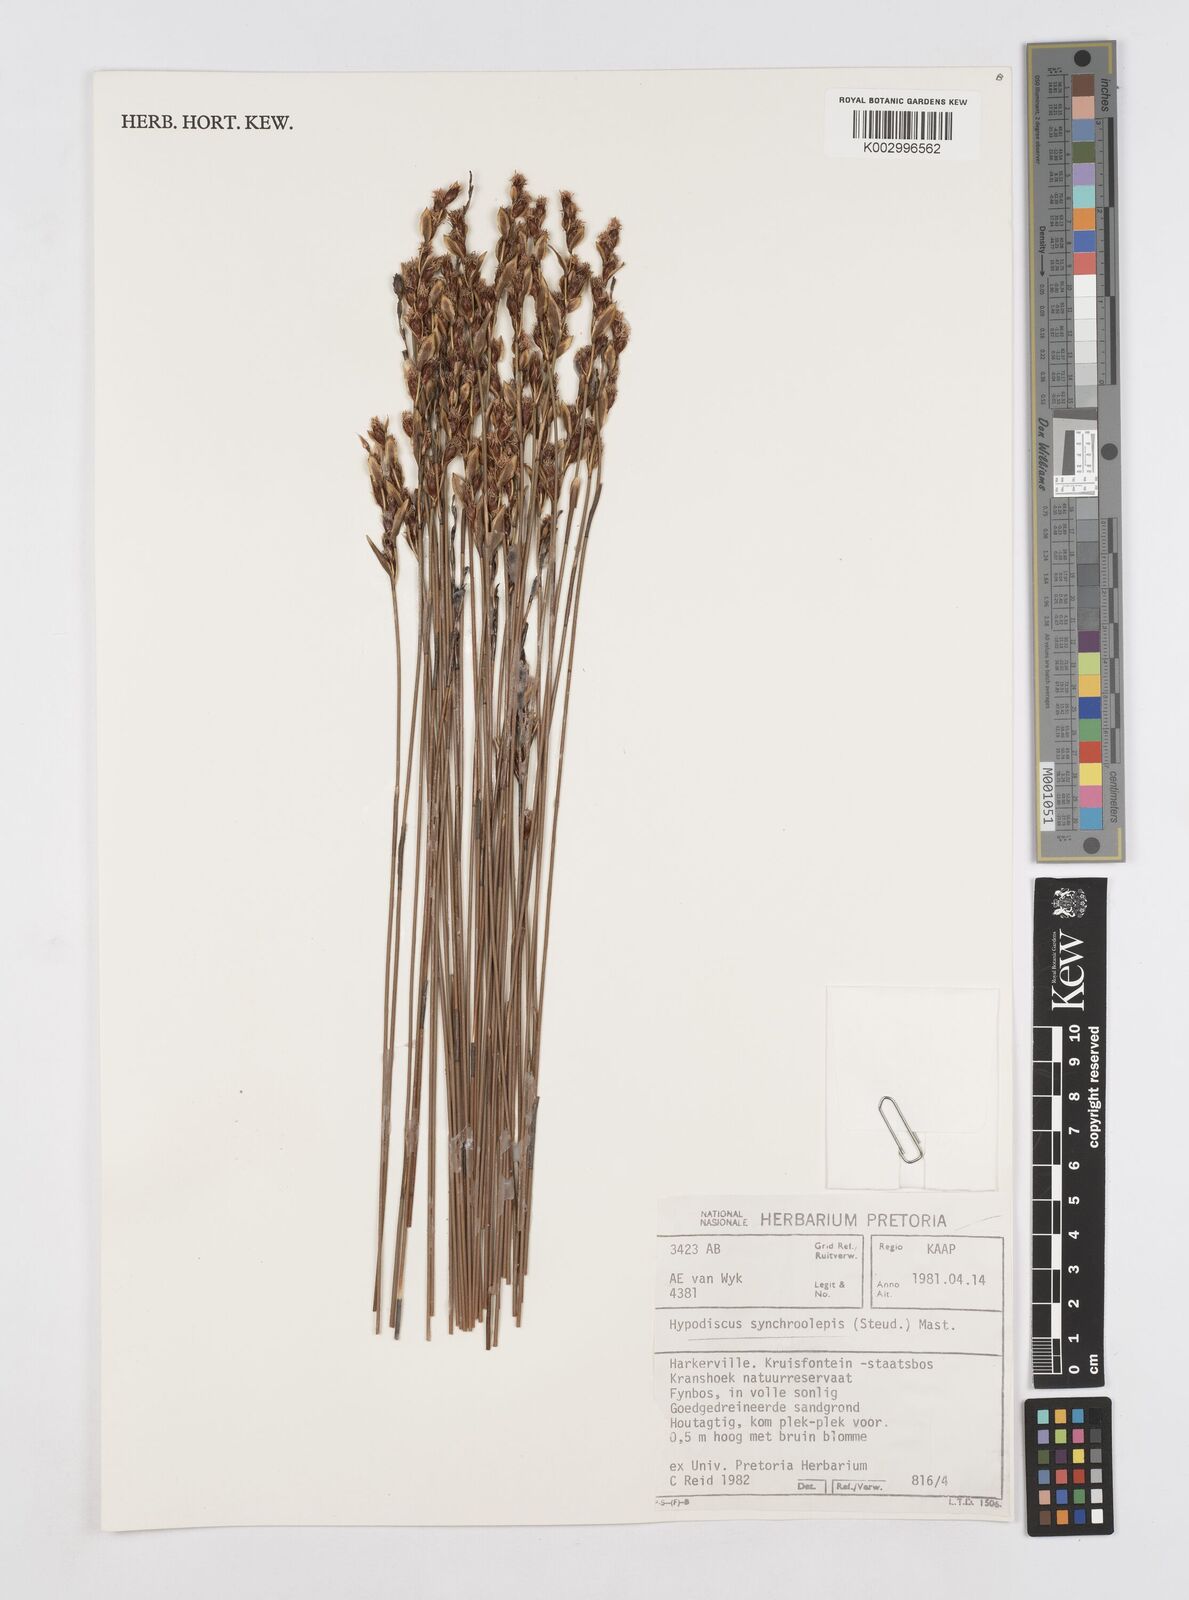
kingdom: Plantae
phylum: Tracheophyta
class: Liliopsida
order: Poales
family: Restionaceae
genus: Hypodiscus
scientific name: Hypodiscus synchroolepis
